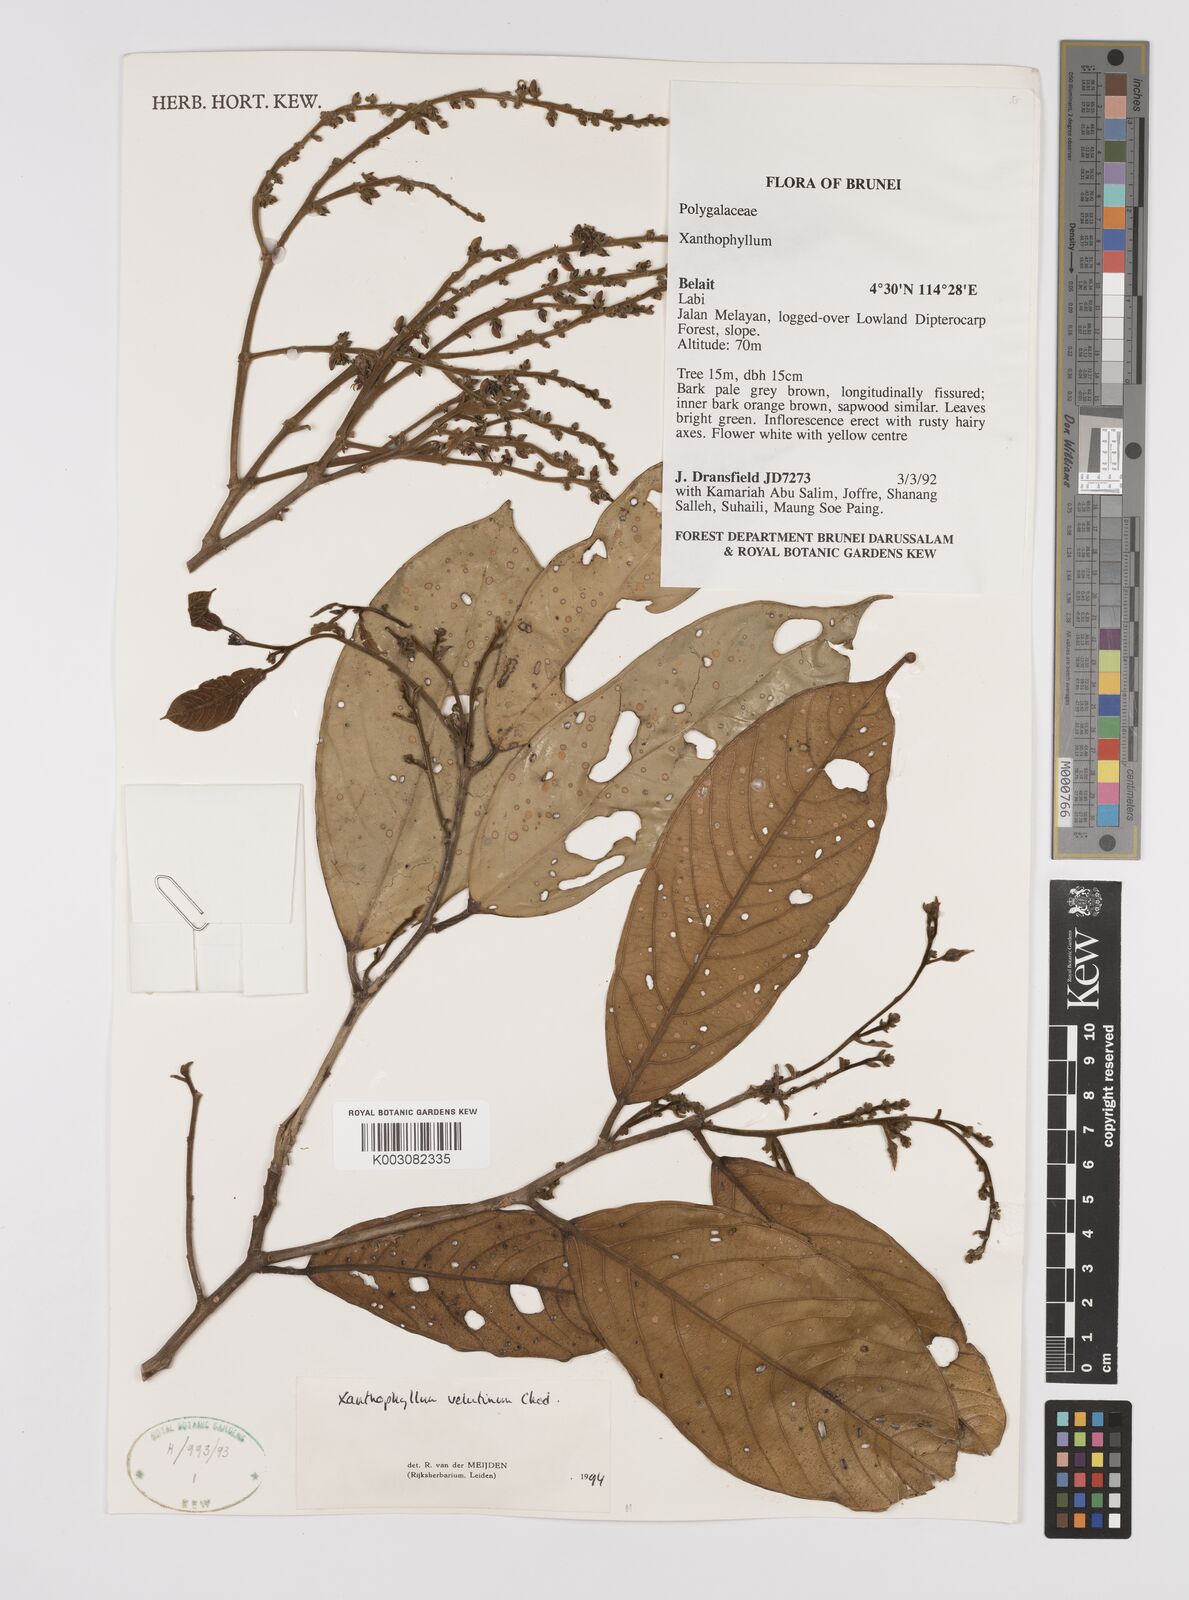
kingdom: Plantae
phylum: Tracheophyta
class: Magnoliopsida
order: Fabales
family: Polygalaceae
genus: Xanthophyllum
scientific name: Xanthophyllum velutinum
